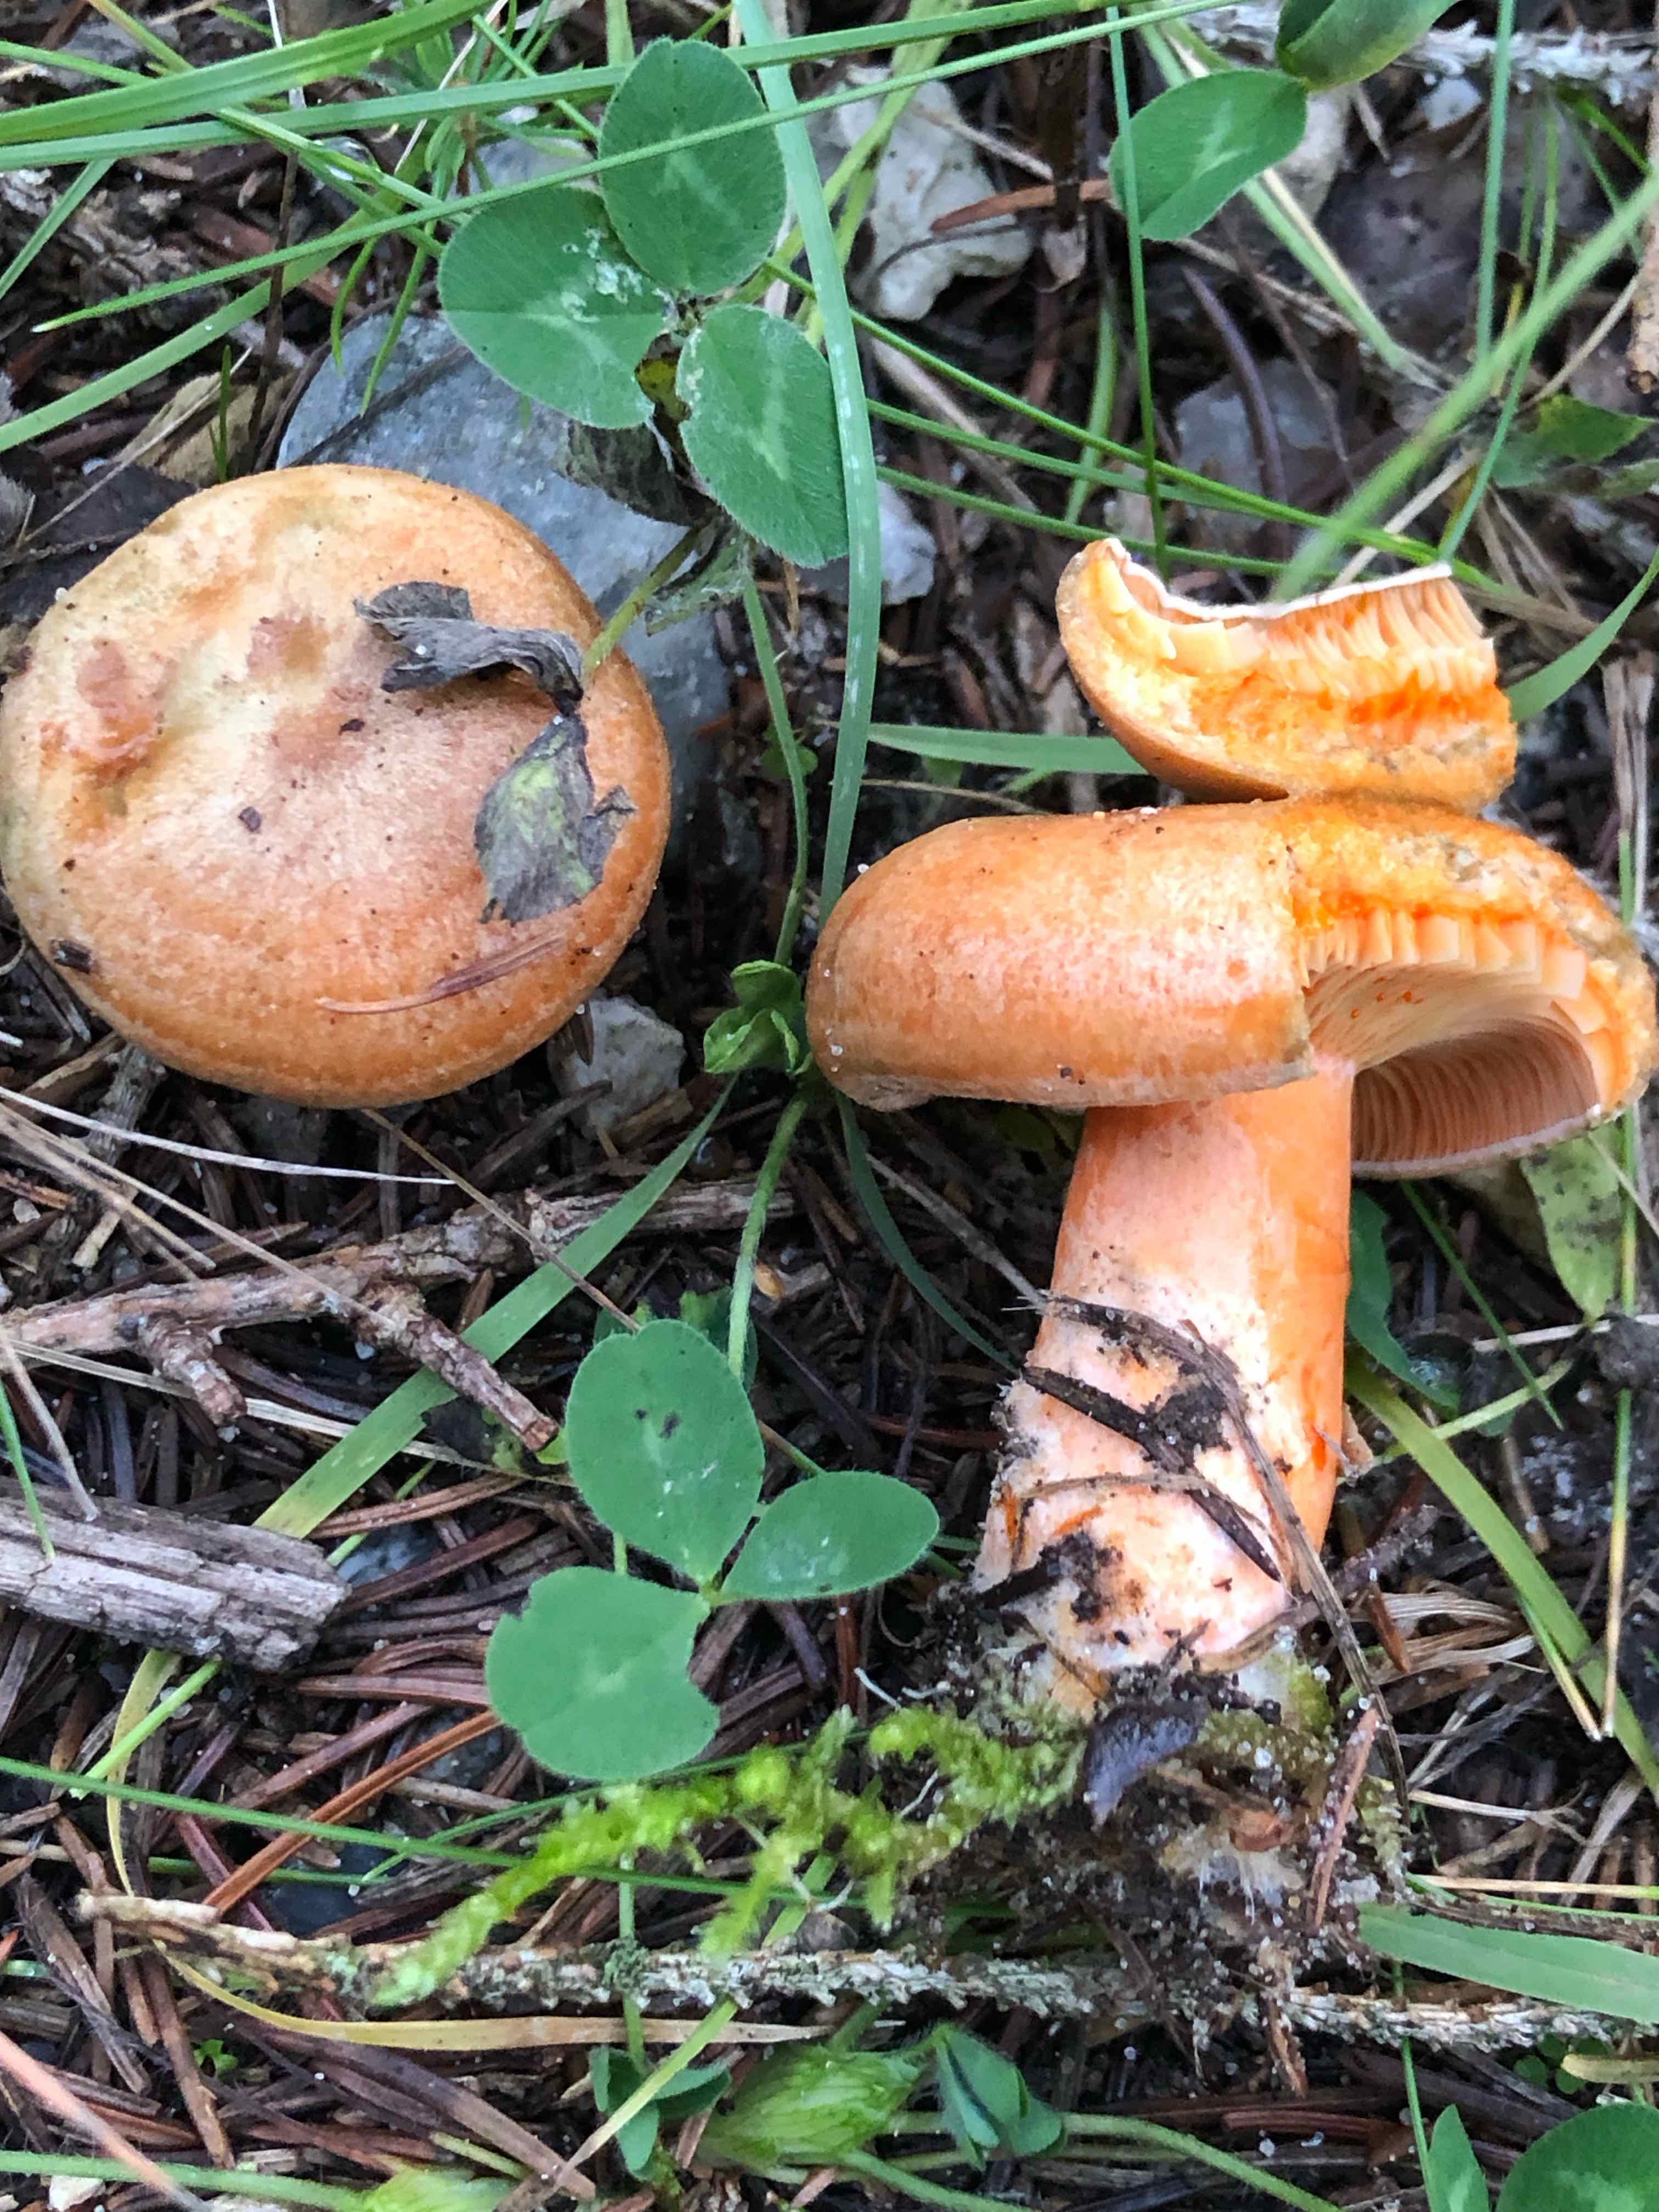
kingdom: Fungi
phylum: Basidiomycota
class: Agaricomycetes
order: Russulales
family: Russulaceae
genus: Lactarius
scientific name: Lactarius deterrimus
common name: gran-mælkehat
